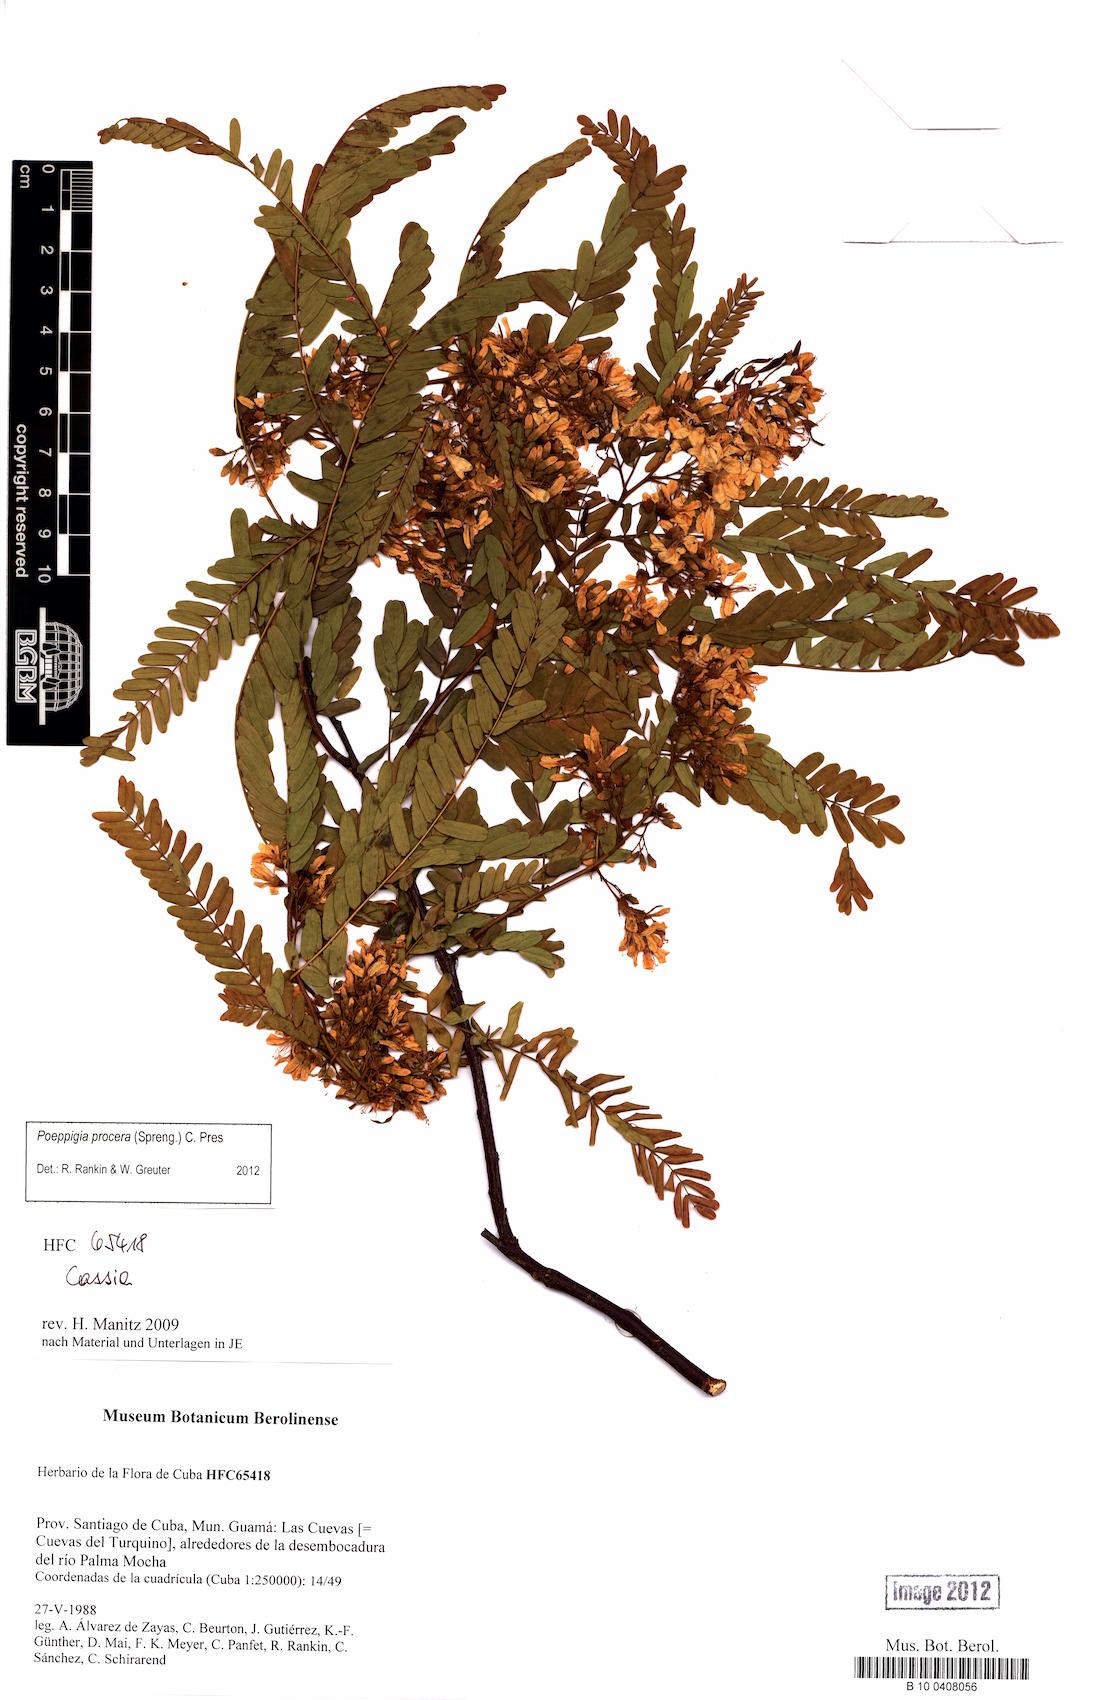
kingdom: Plantae
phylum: Tracheophyta
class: Magnoliopsida
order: Fabales
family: Fabaceae
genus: Poeppigia
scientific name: Poeppigia procera
